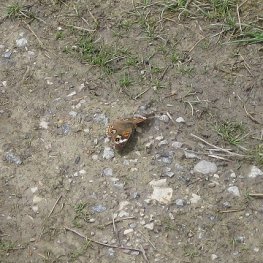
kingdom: Animalia
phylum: Arthropoda
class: Insecta
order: Lepidoptera
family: Nymphalidae
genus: Junonia
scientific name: Junonia coenia
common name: Common Buckeye
